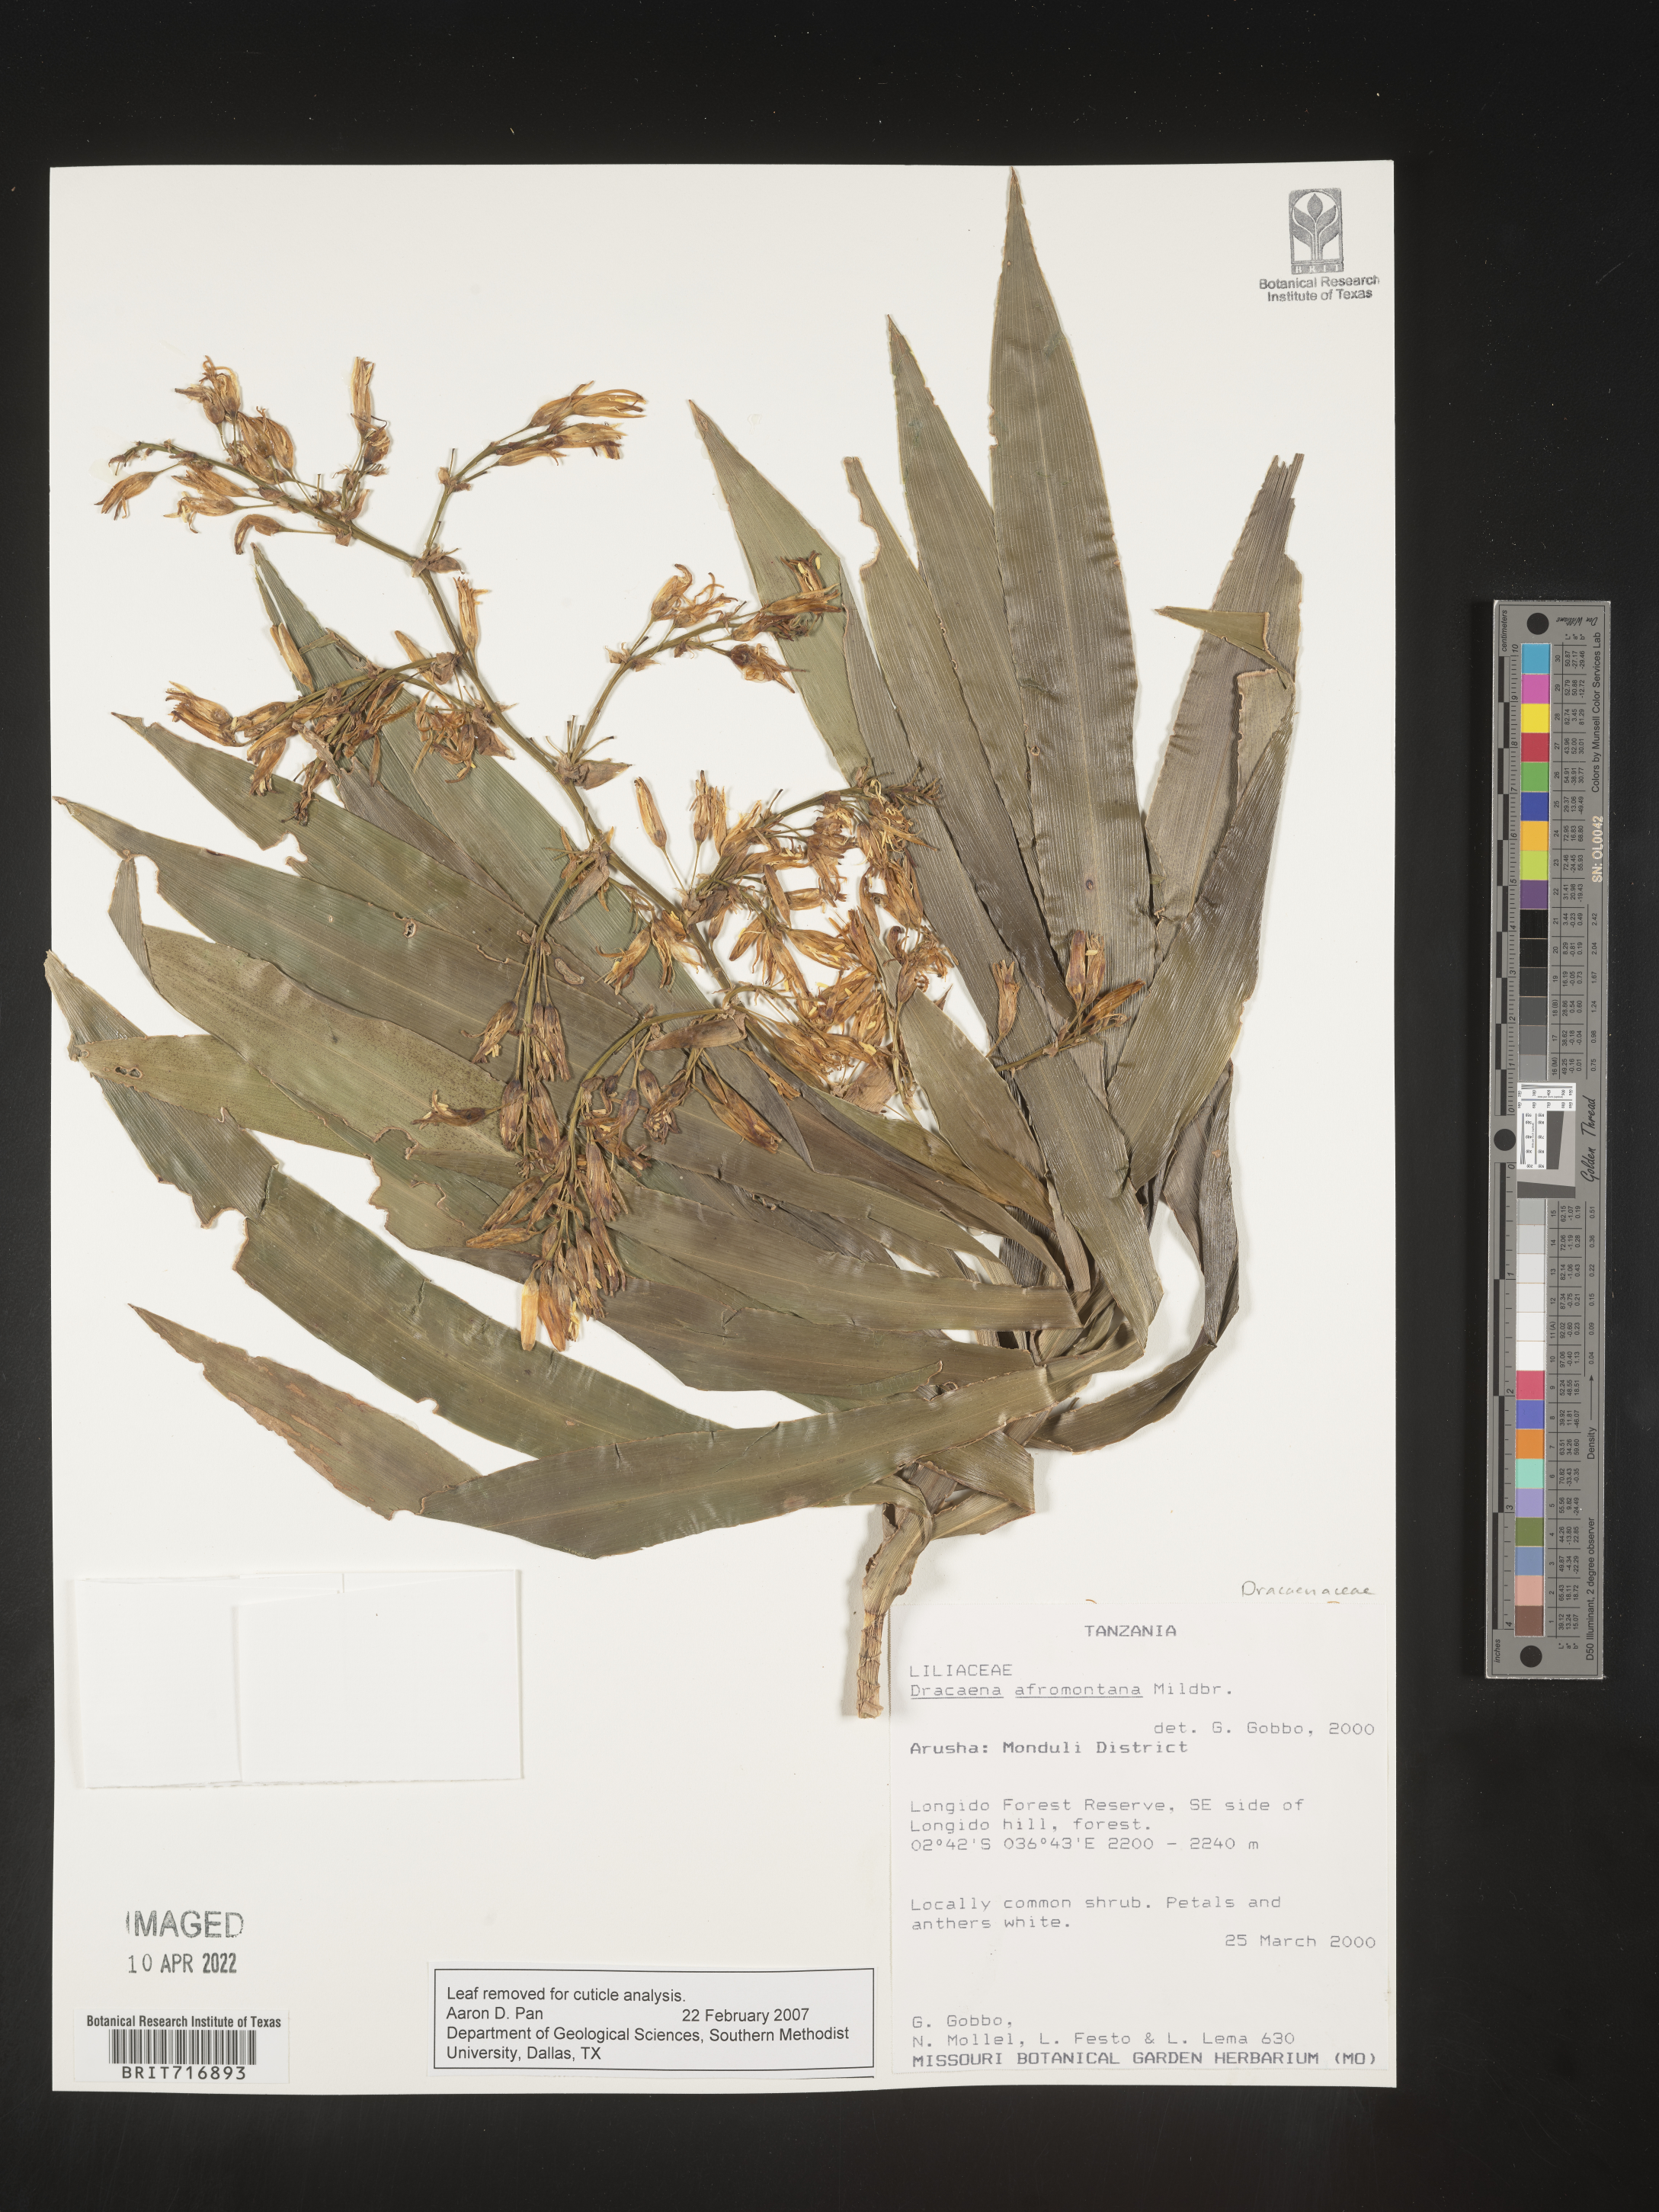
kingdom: Plantae
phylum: Tracheophyta
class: Liliopsida
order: Asparagales
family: Asparagaceae
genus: Dracaena
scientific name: Dracaena
